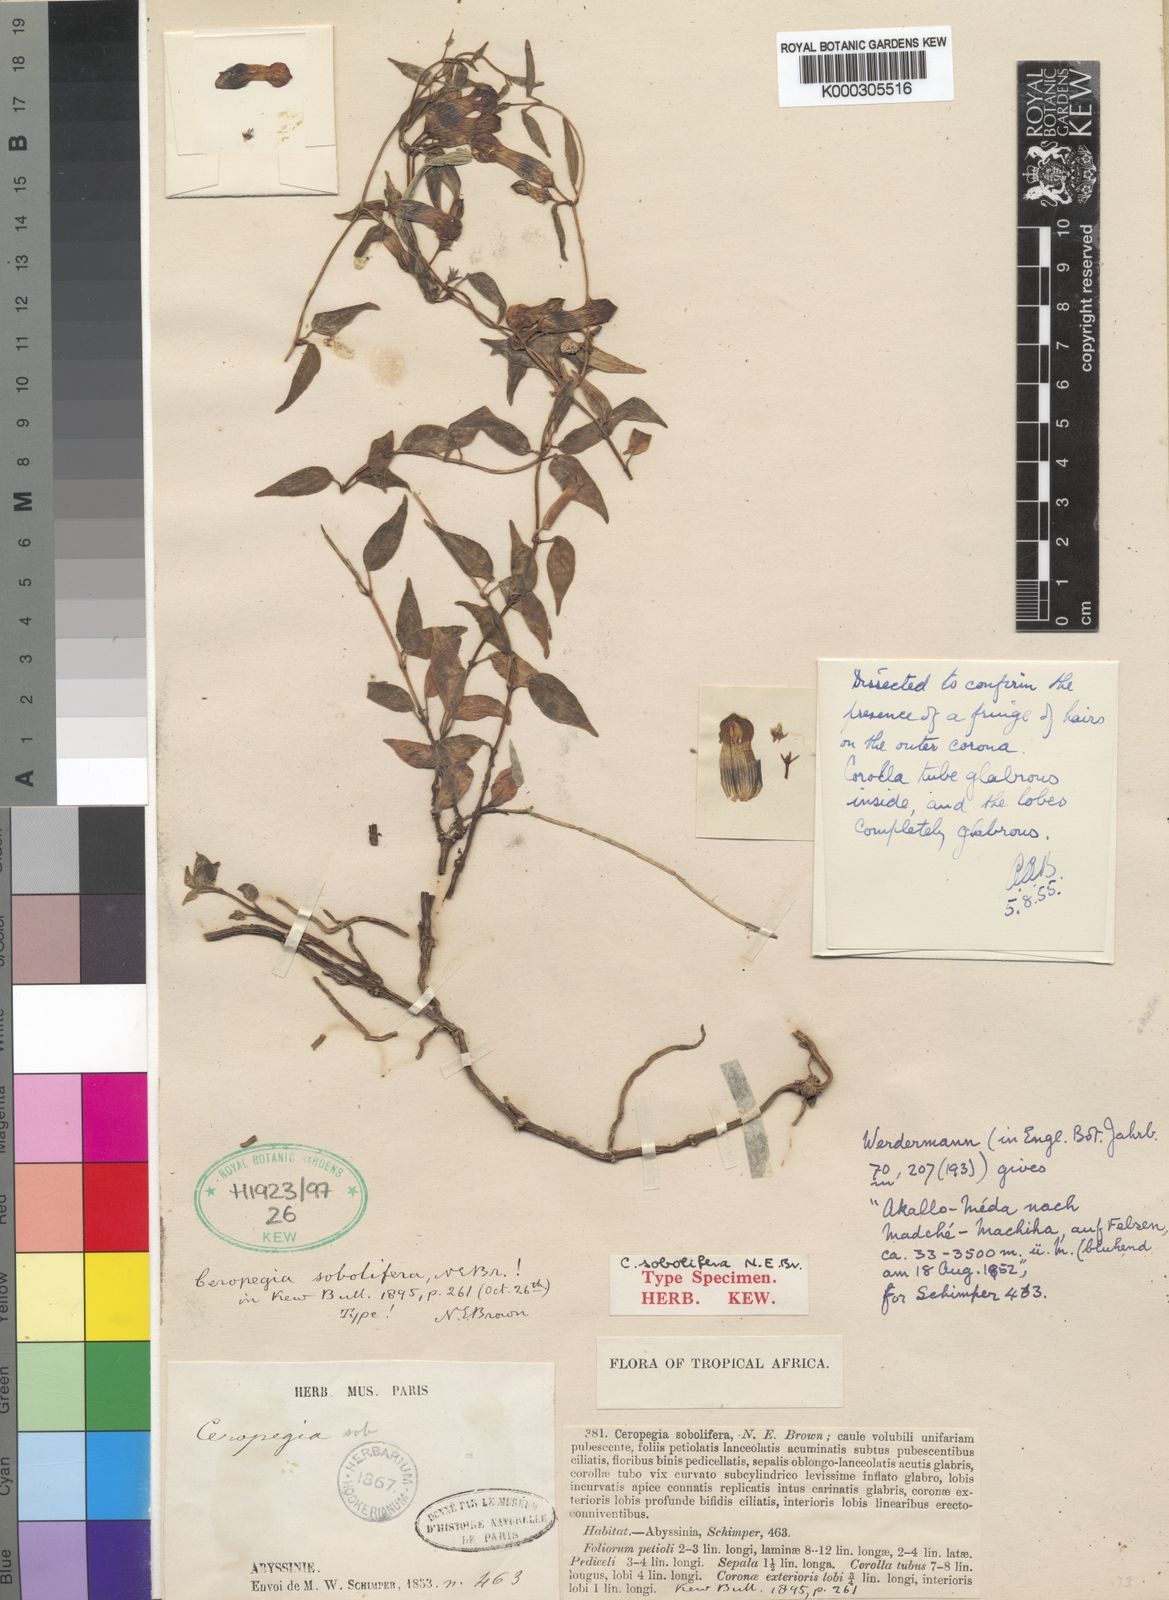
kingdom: Plantae
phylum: Tracheophyta
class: Magnoliopsida
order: Gentianales
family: Apocynaceae
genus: Ceropegia
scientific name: Ceropegia sobolifera
